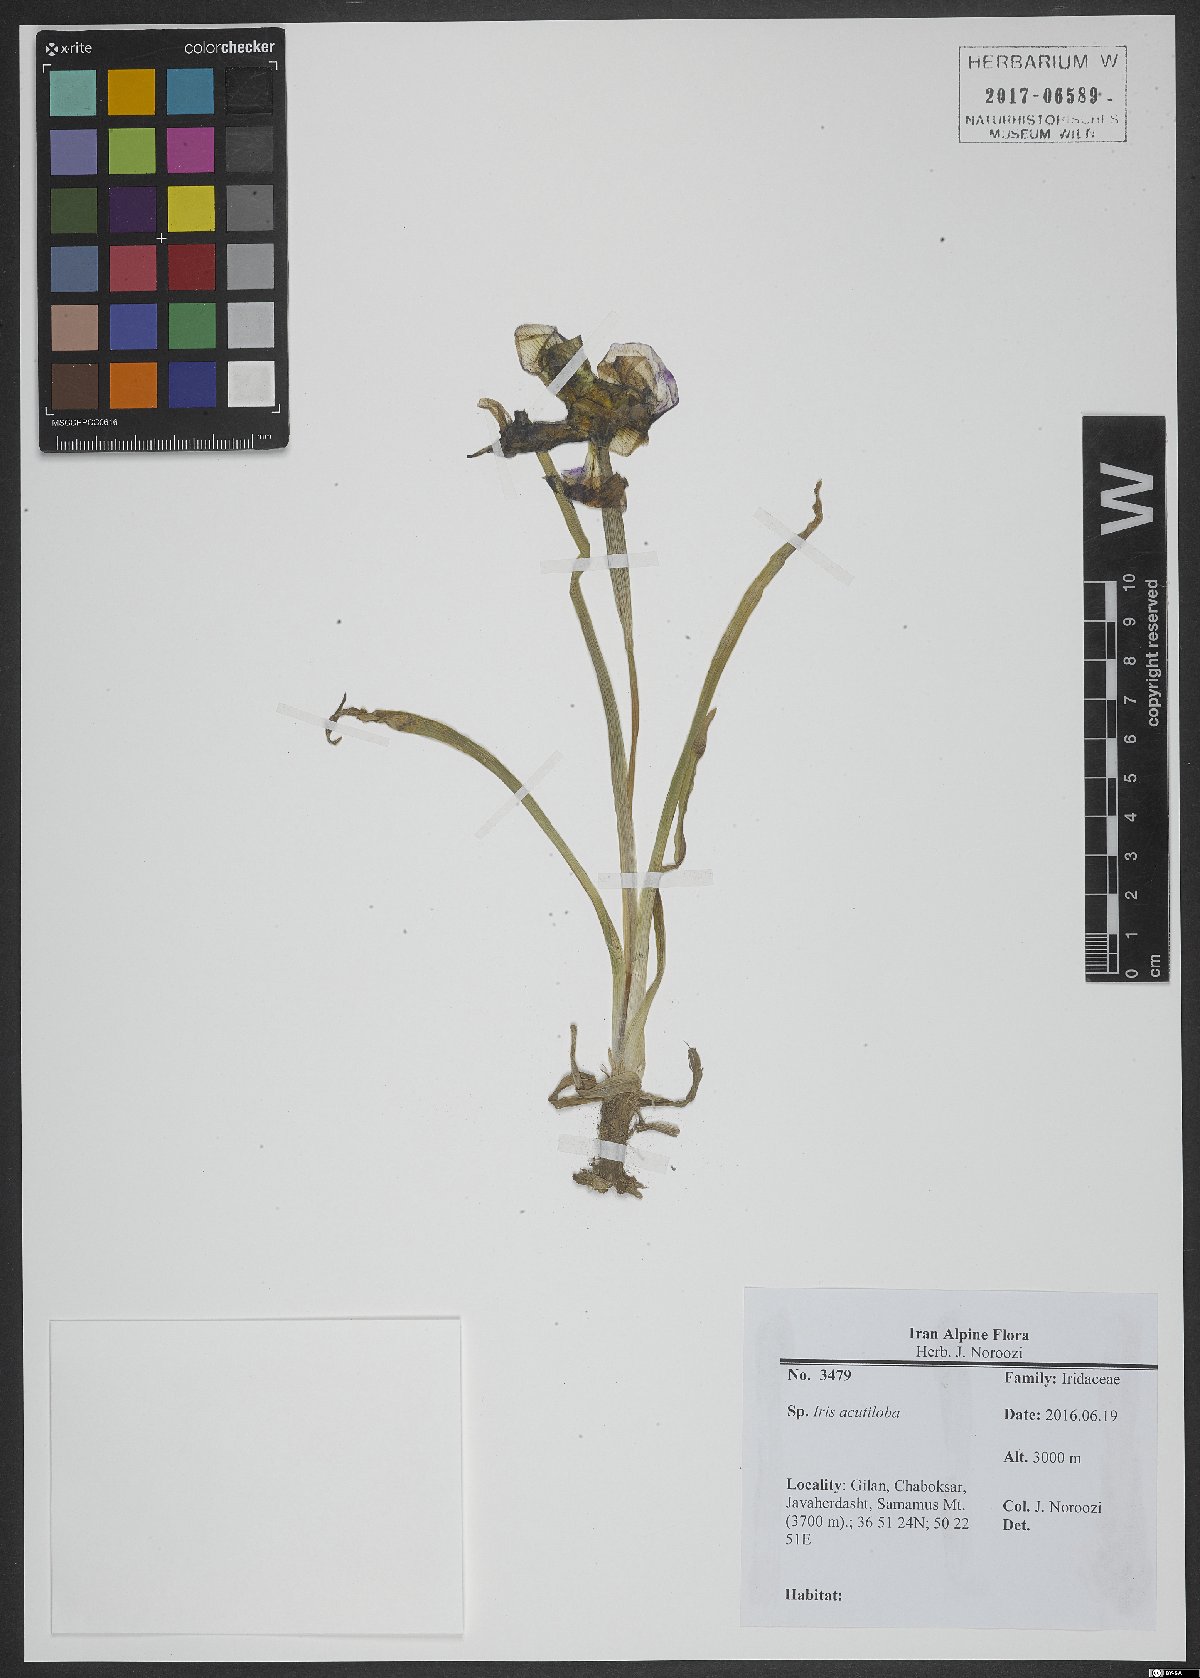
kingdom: Plantae
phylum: Tracheophyta
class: Liliopsida
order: Asparagales
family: Iridaceae
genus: Iris
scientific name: Iris acutiloba
